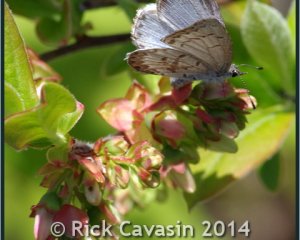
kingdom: Animalia
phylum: Arthropoda
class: Insecta
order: Lepidoptera
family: Lycaenidae
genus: Celastrina
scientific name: Celastrina lucia
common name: Northern Spring Azure
